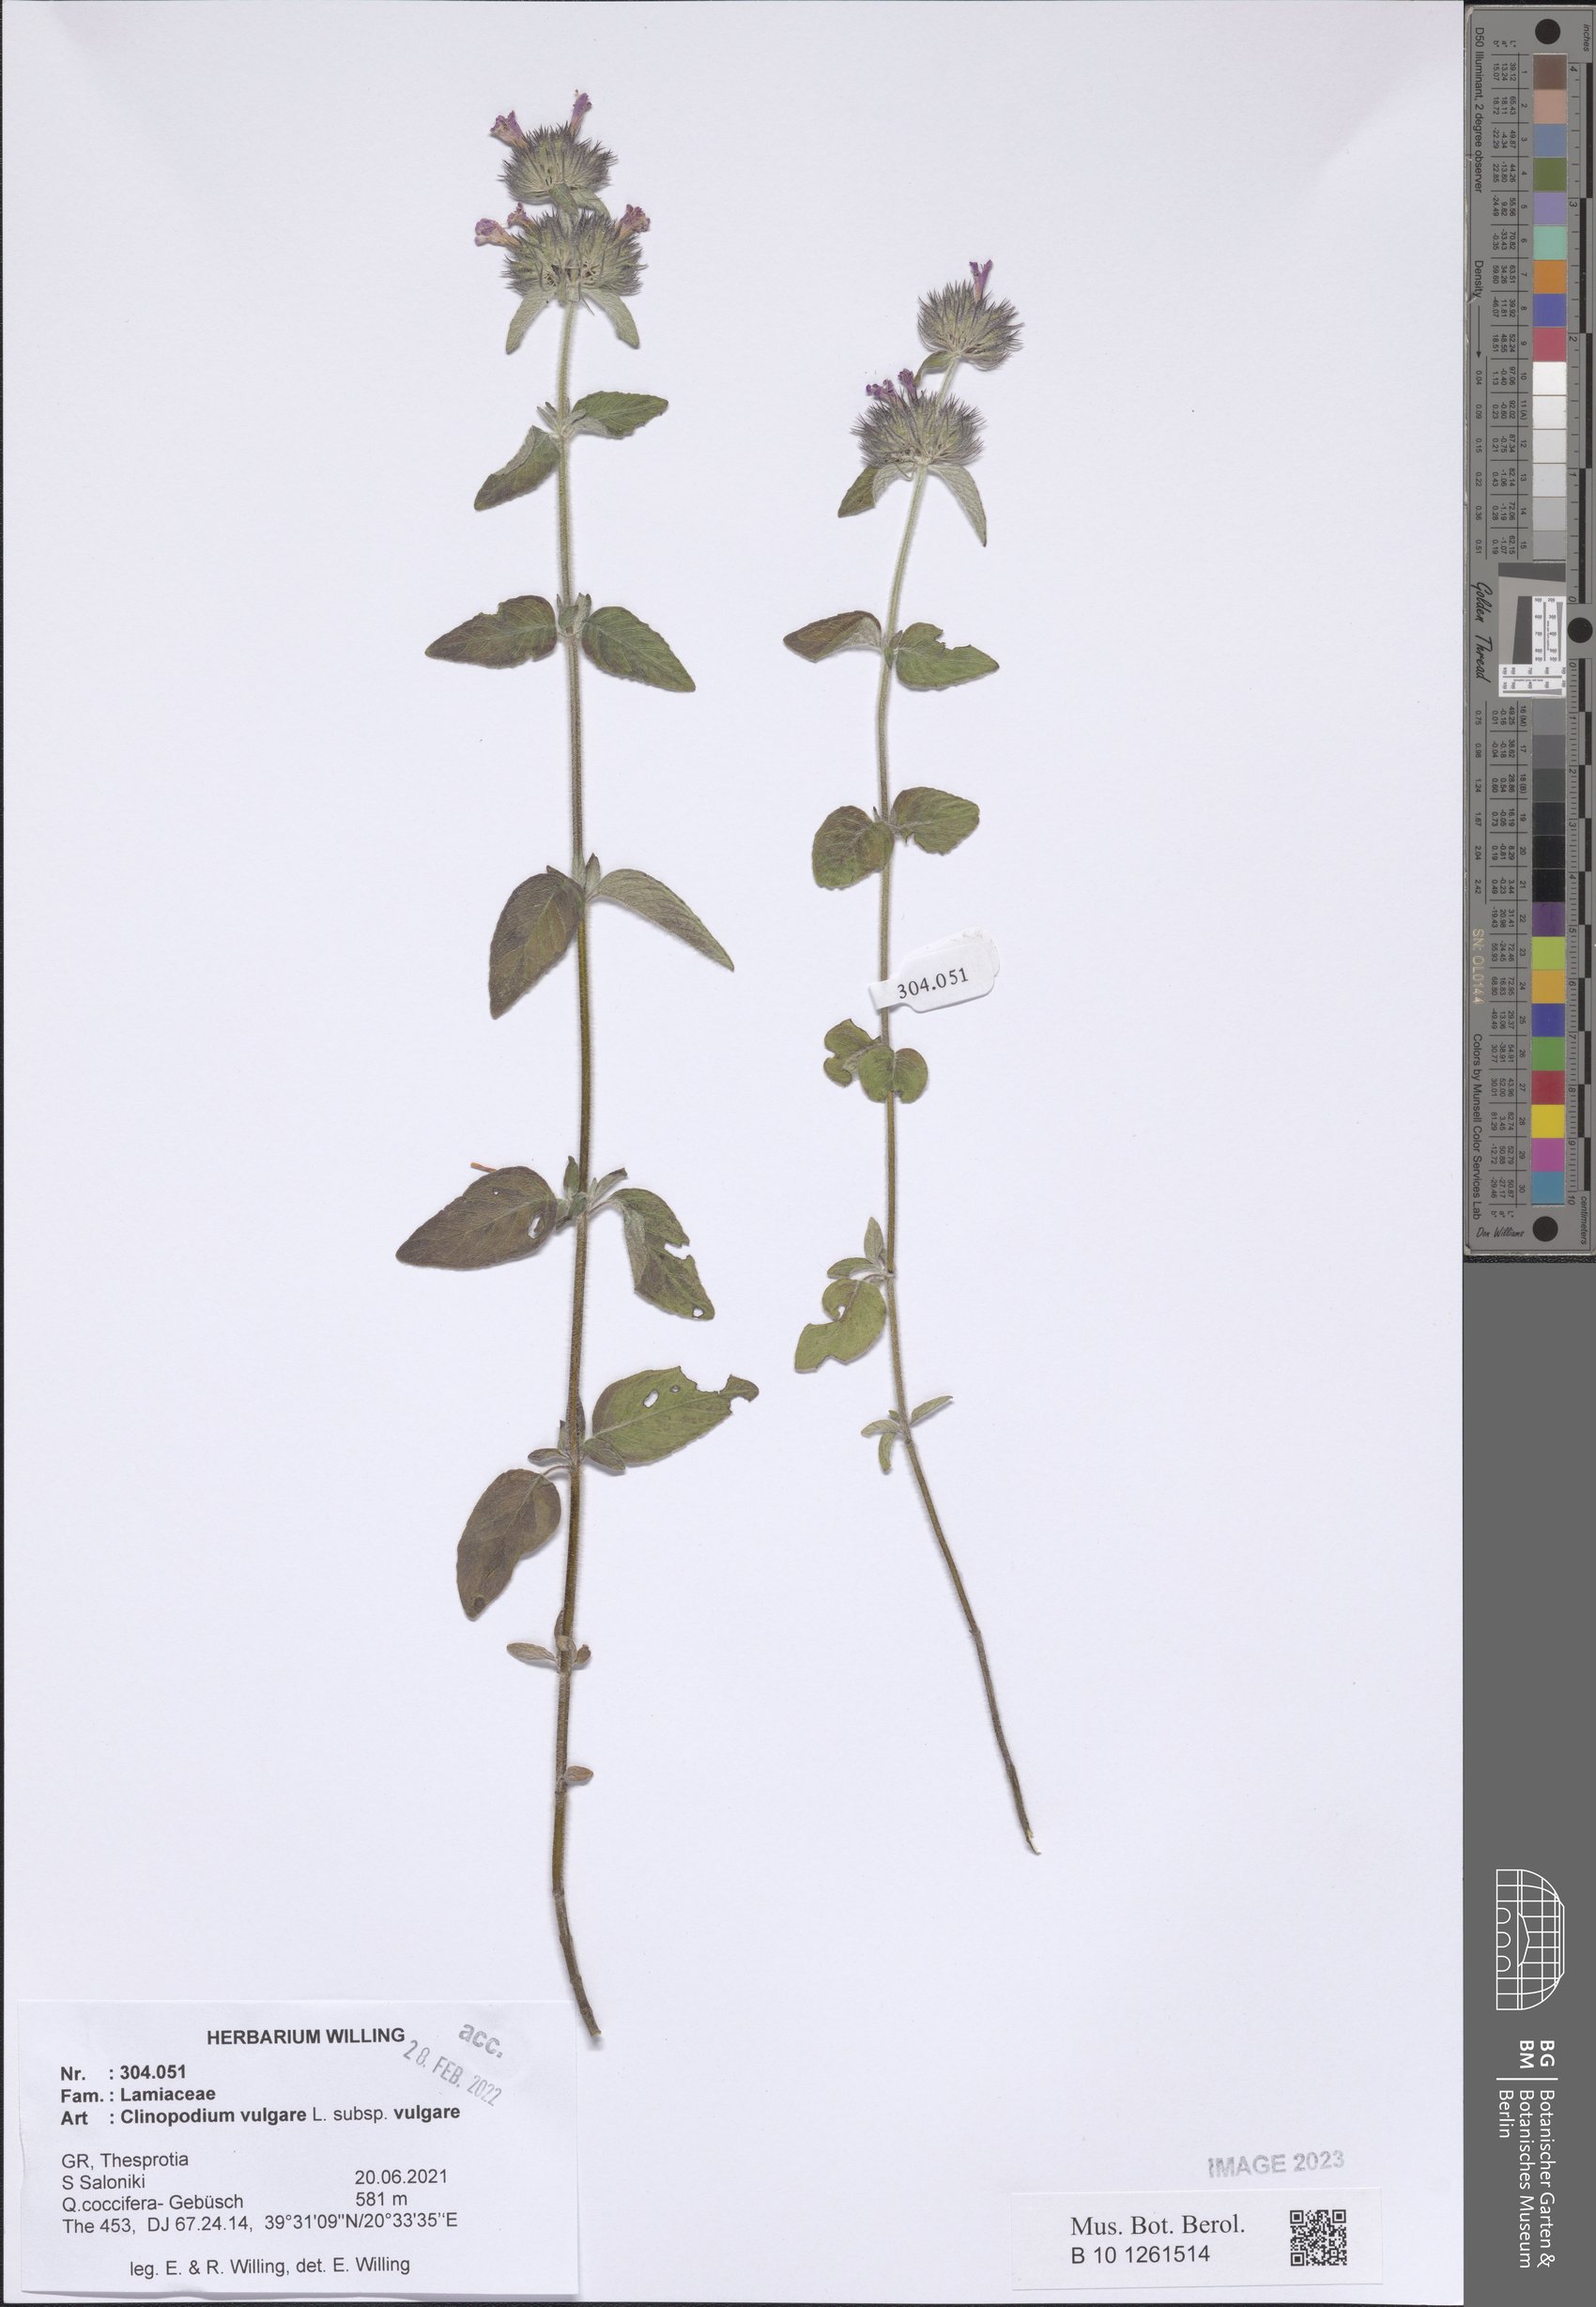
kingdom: Plantae
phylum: Tracheophyta
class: Magnoliopsida
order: Lamiales
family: Lamiaceae
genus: Clinopodium
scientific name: Clinopodium vulgare
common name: Wild basil
